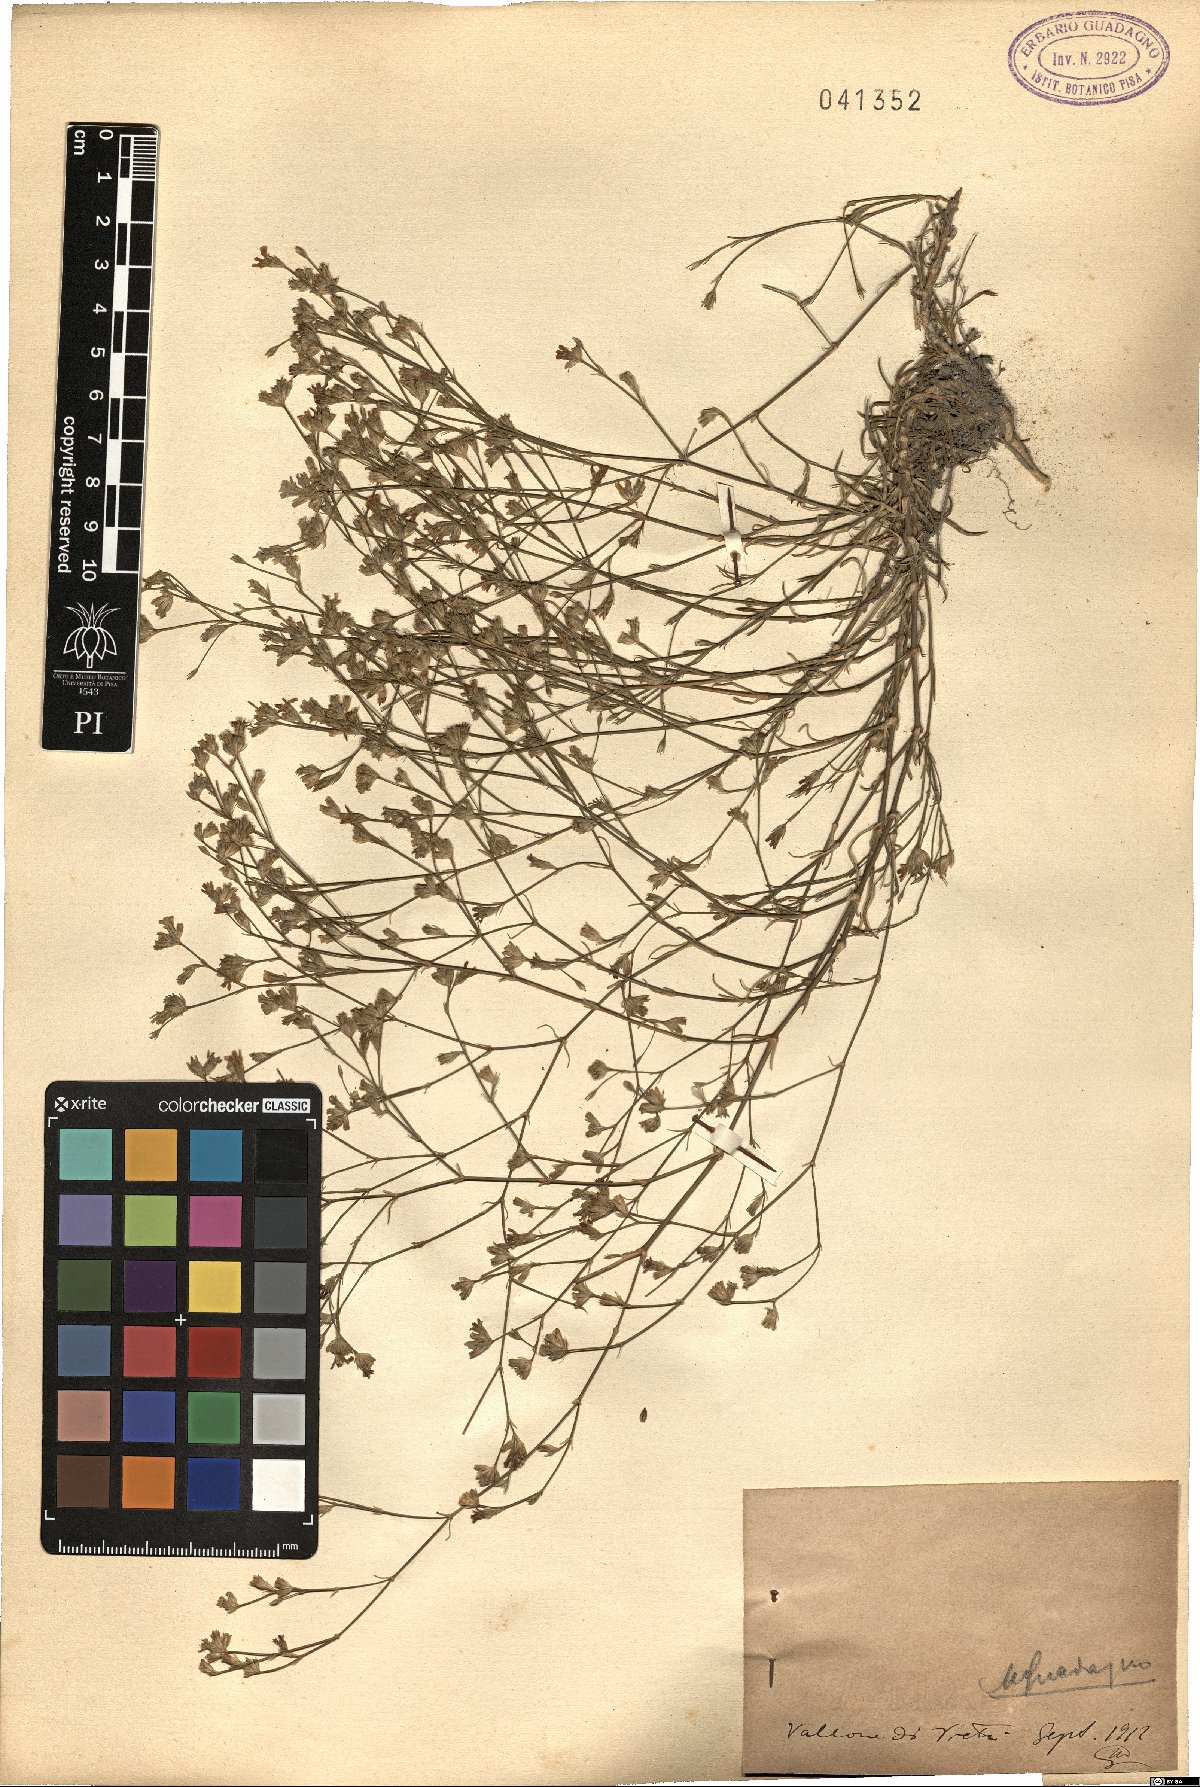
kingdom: Plantae
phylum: Tracheophyta
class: Magnoliopsida
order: Caryophyllales
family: Caryophyllaceae
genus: Tunica
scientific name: Tunica
